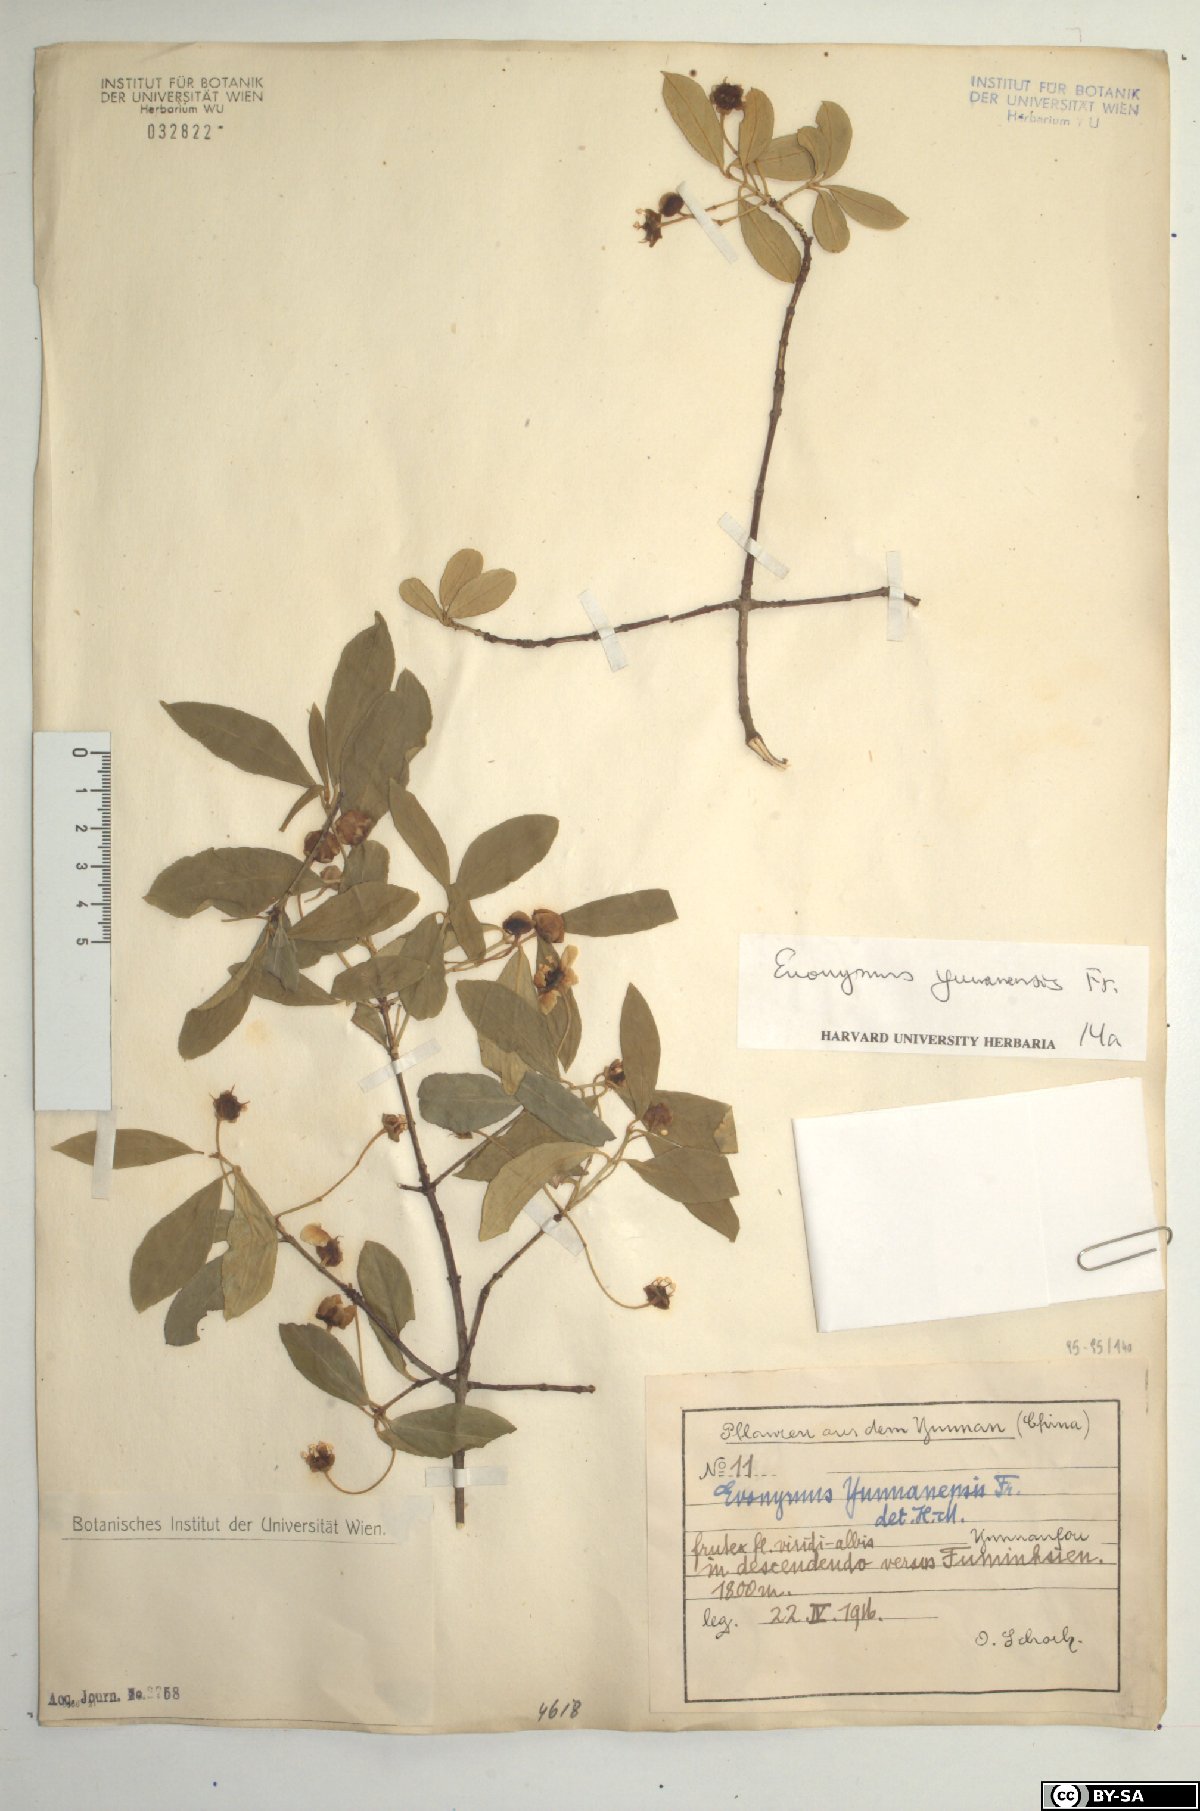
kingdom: Plantae
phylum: Tracheophyta
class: Magnoliopsida
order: Celastrales
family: Celastraceae
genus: Euonymus
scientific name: Euonymus yunnanensis
